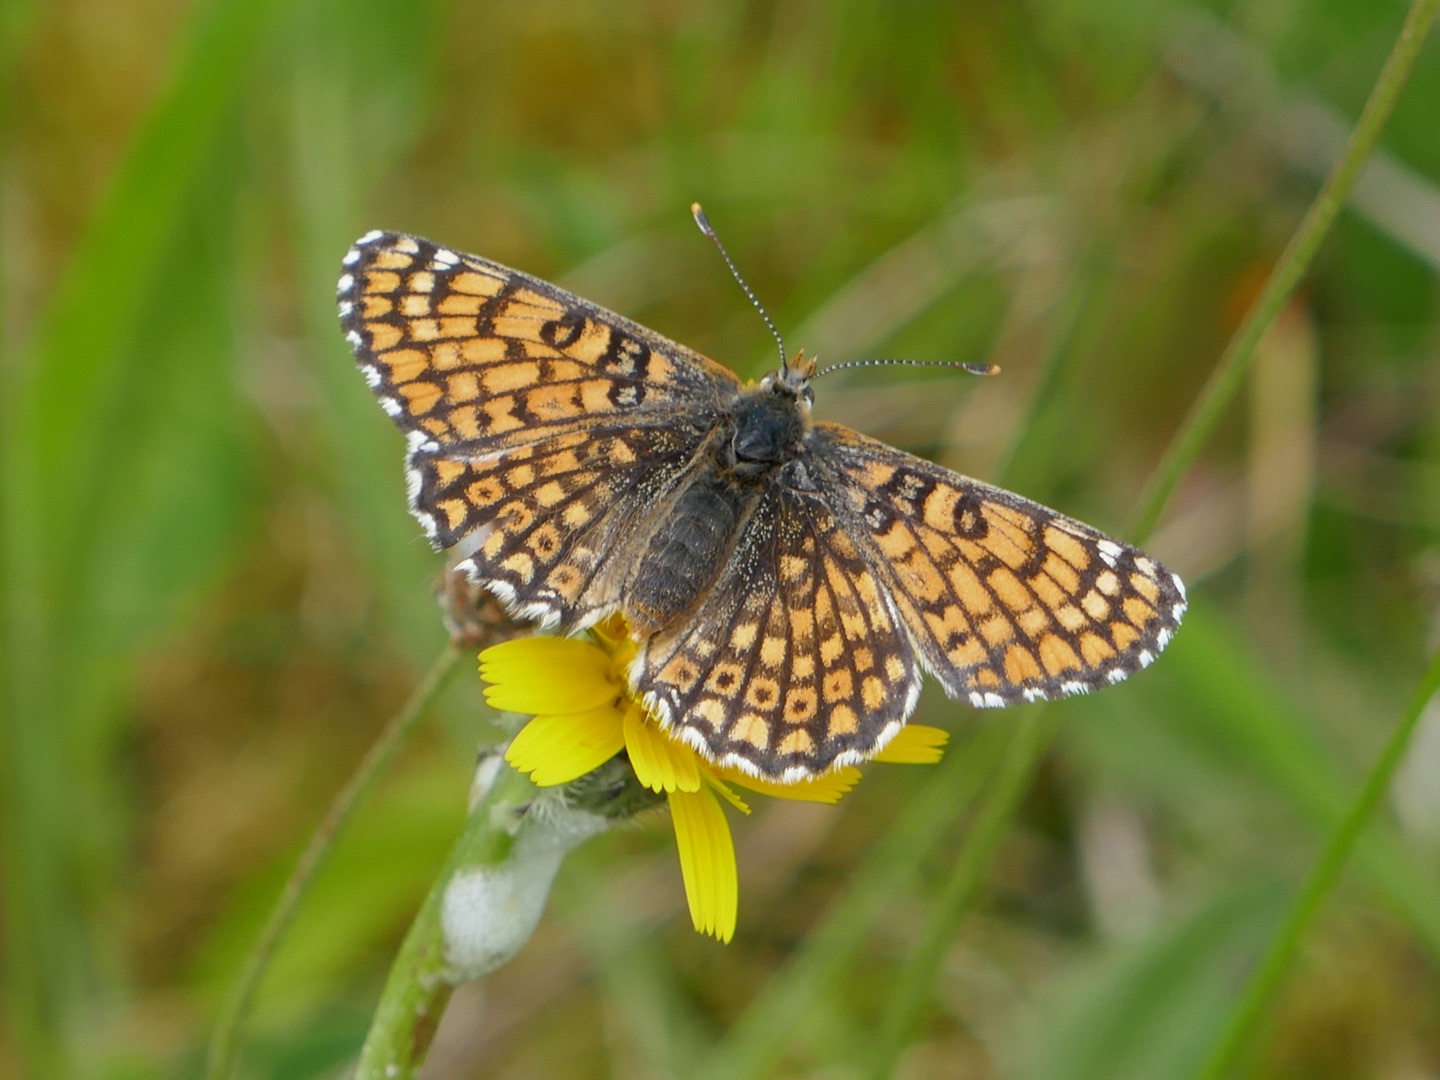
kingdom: Animalia
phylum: Arthropoda
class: Insecta
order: Lepidoptera
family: Nymphalidae
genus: Melitaea
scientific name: Melitaea cinxia
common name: Okkergul pletvinge
